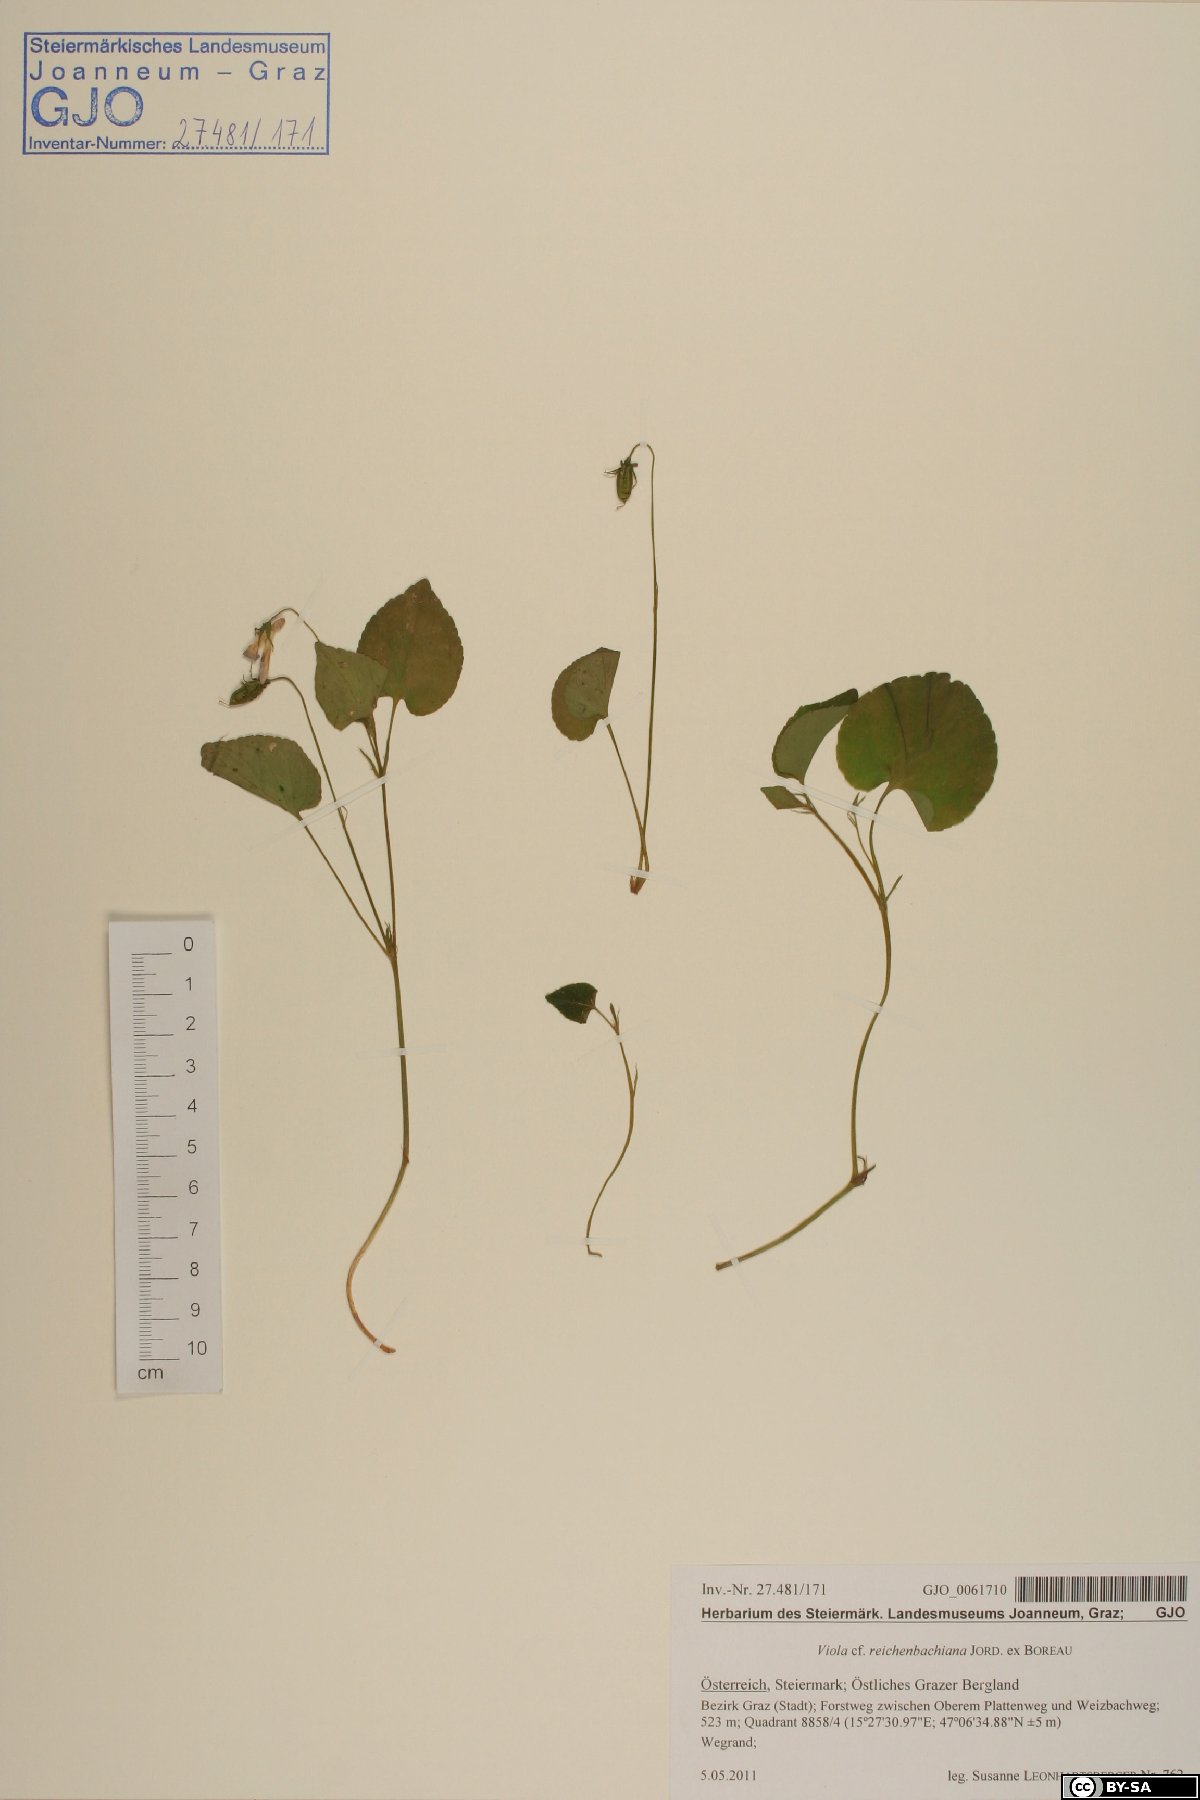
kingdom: Plantae
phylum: Tracheophyta
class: Magnoliopsida
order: Malpighiales
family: Violaceae
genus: Viola
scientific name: Viola reichenbachiana
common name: Early dog-violet
